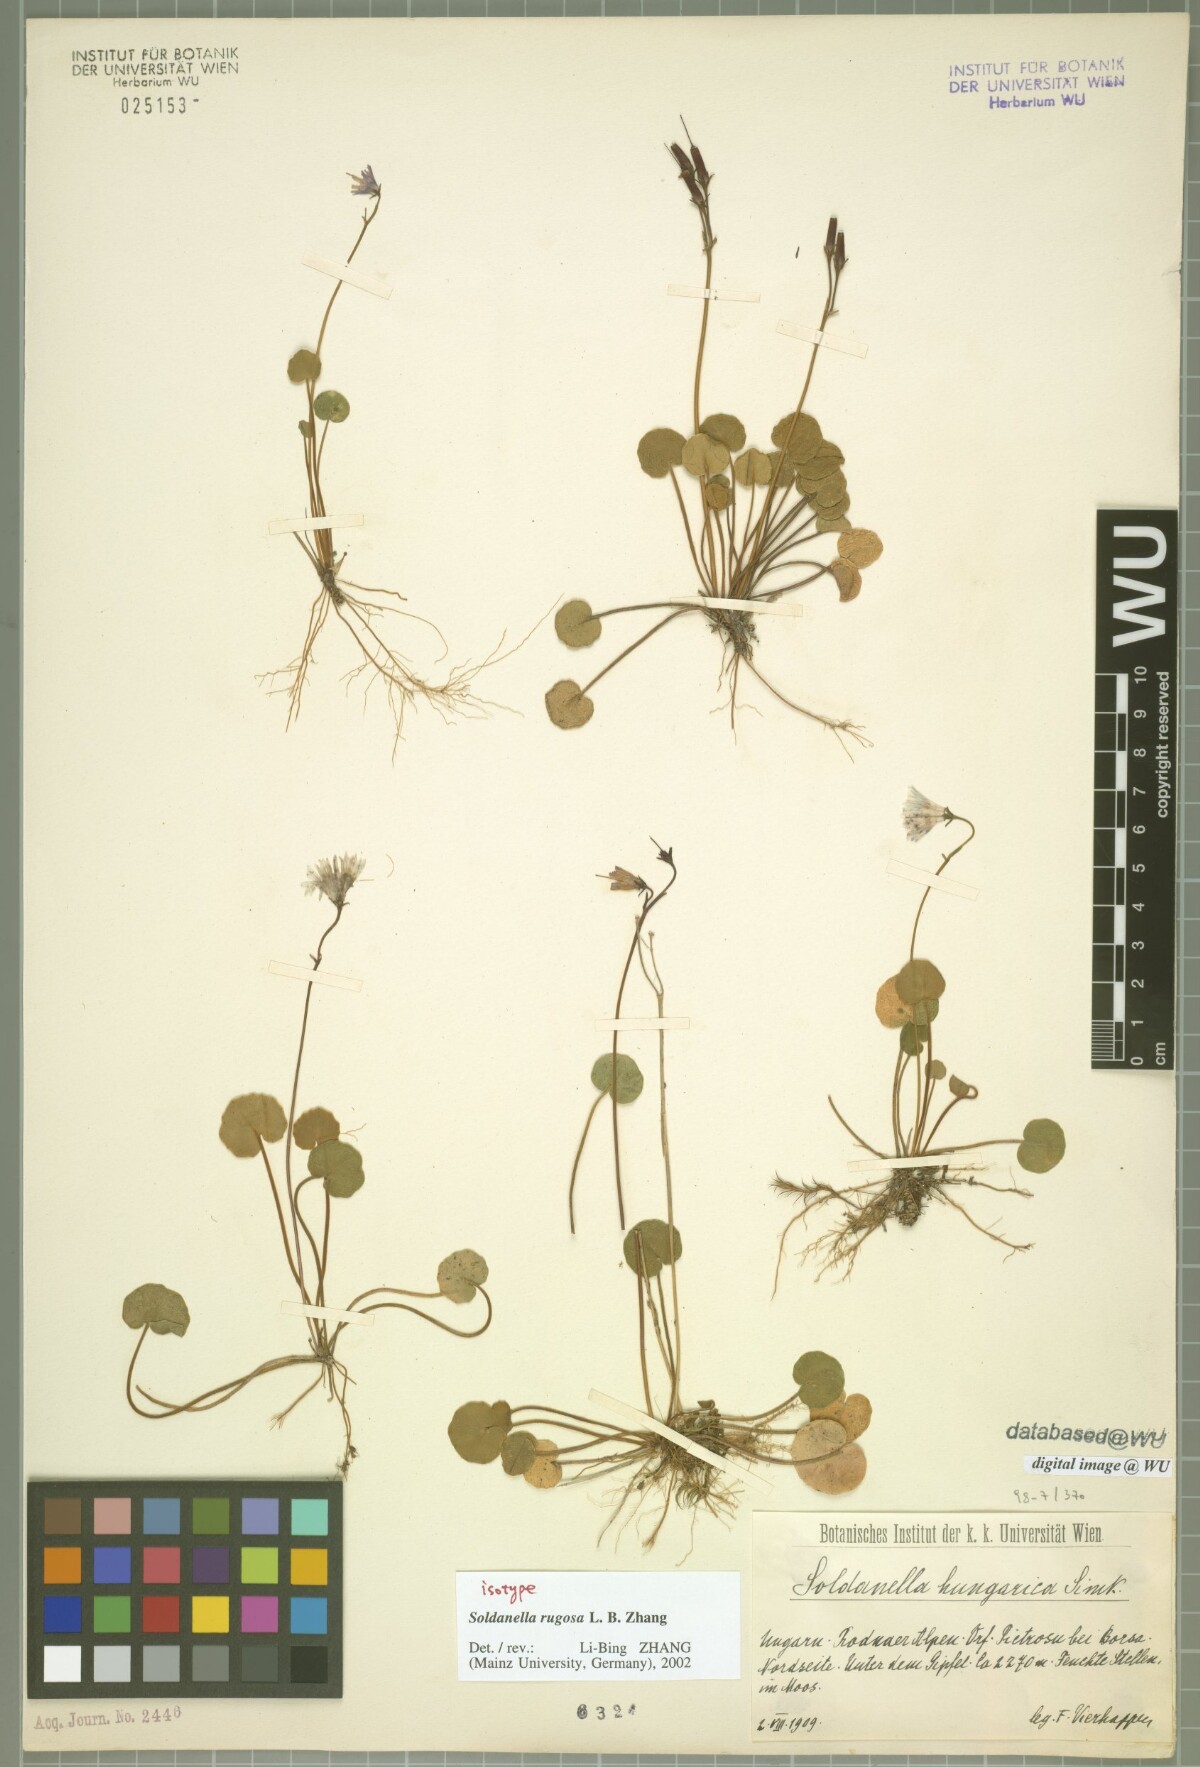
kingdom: Plantae
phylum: Tracheophyta
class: Magnoliopsida
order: Ericales
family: Primulaceae
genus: Soldanella
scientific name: Soldanella rugosa
